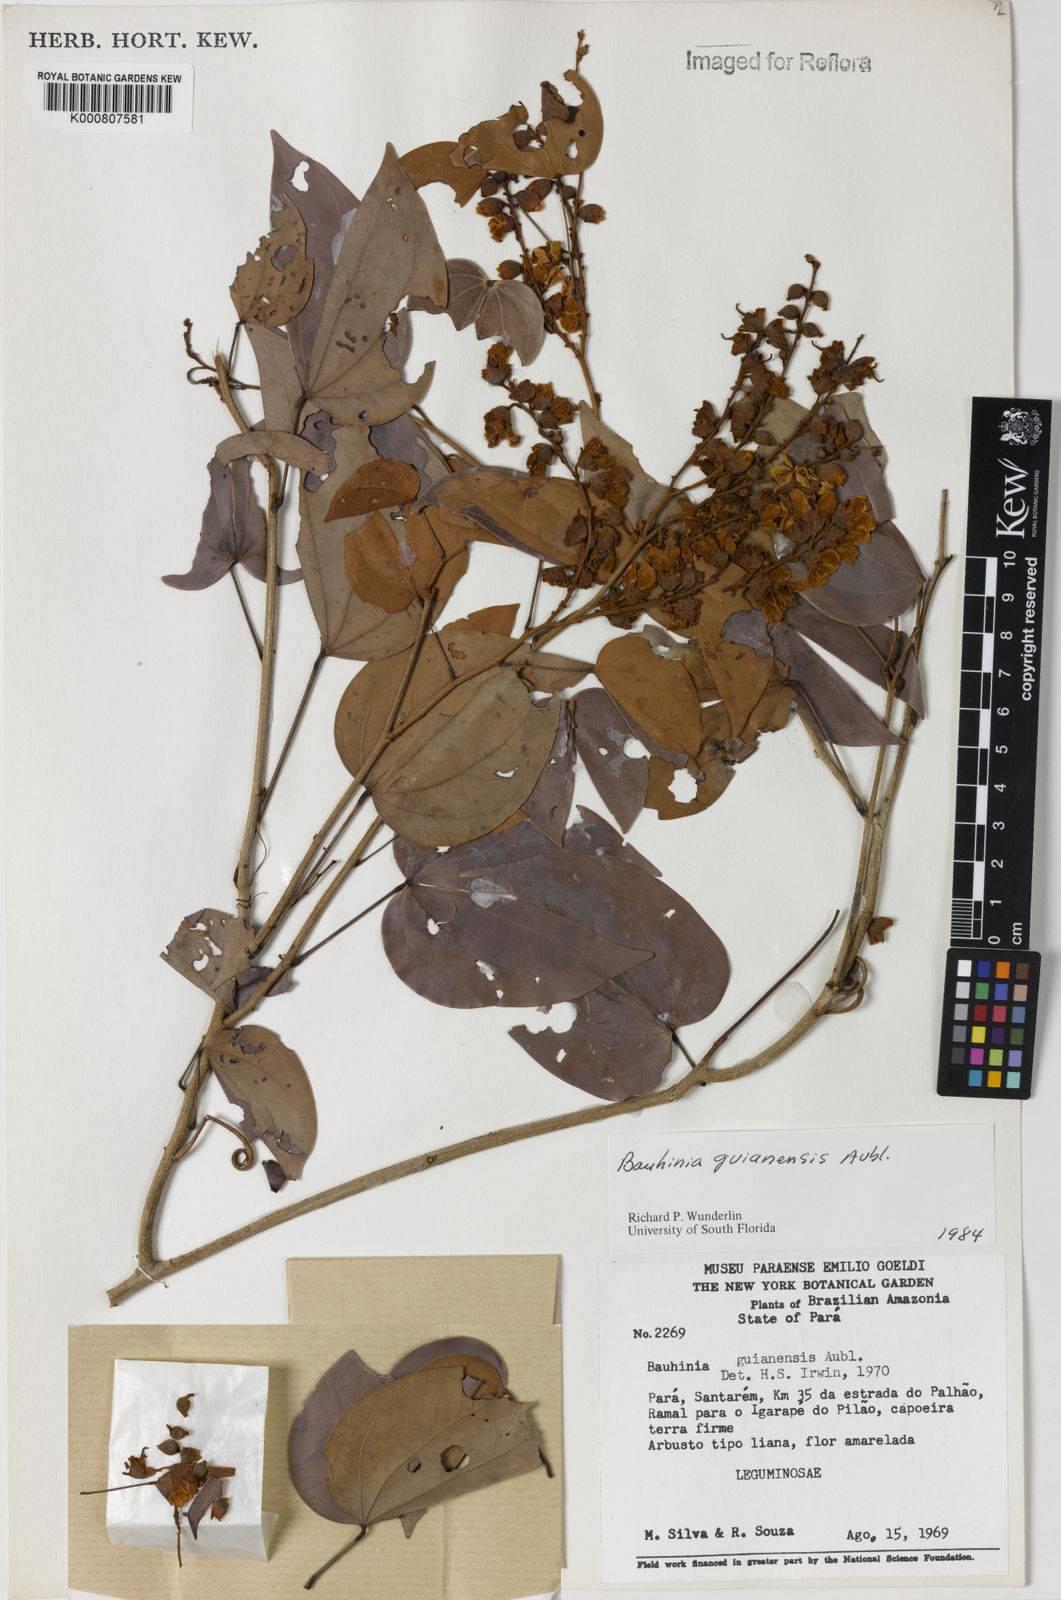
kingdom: Plantae
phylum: Tracheophyta
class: Magnoliopsida
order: Fabales
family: Fabaceae
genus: Schnella
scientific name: Schnella guianensis
